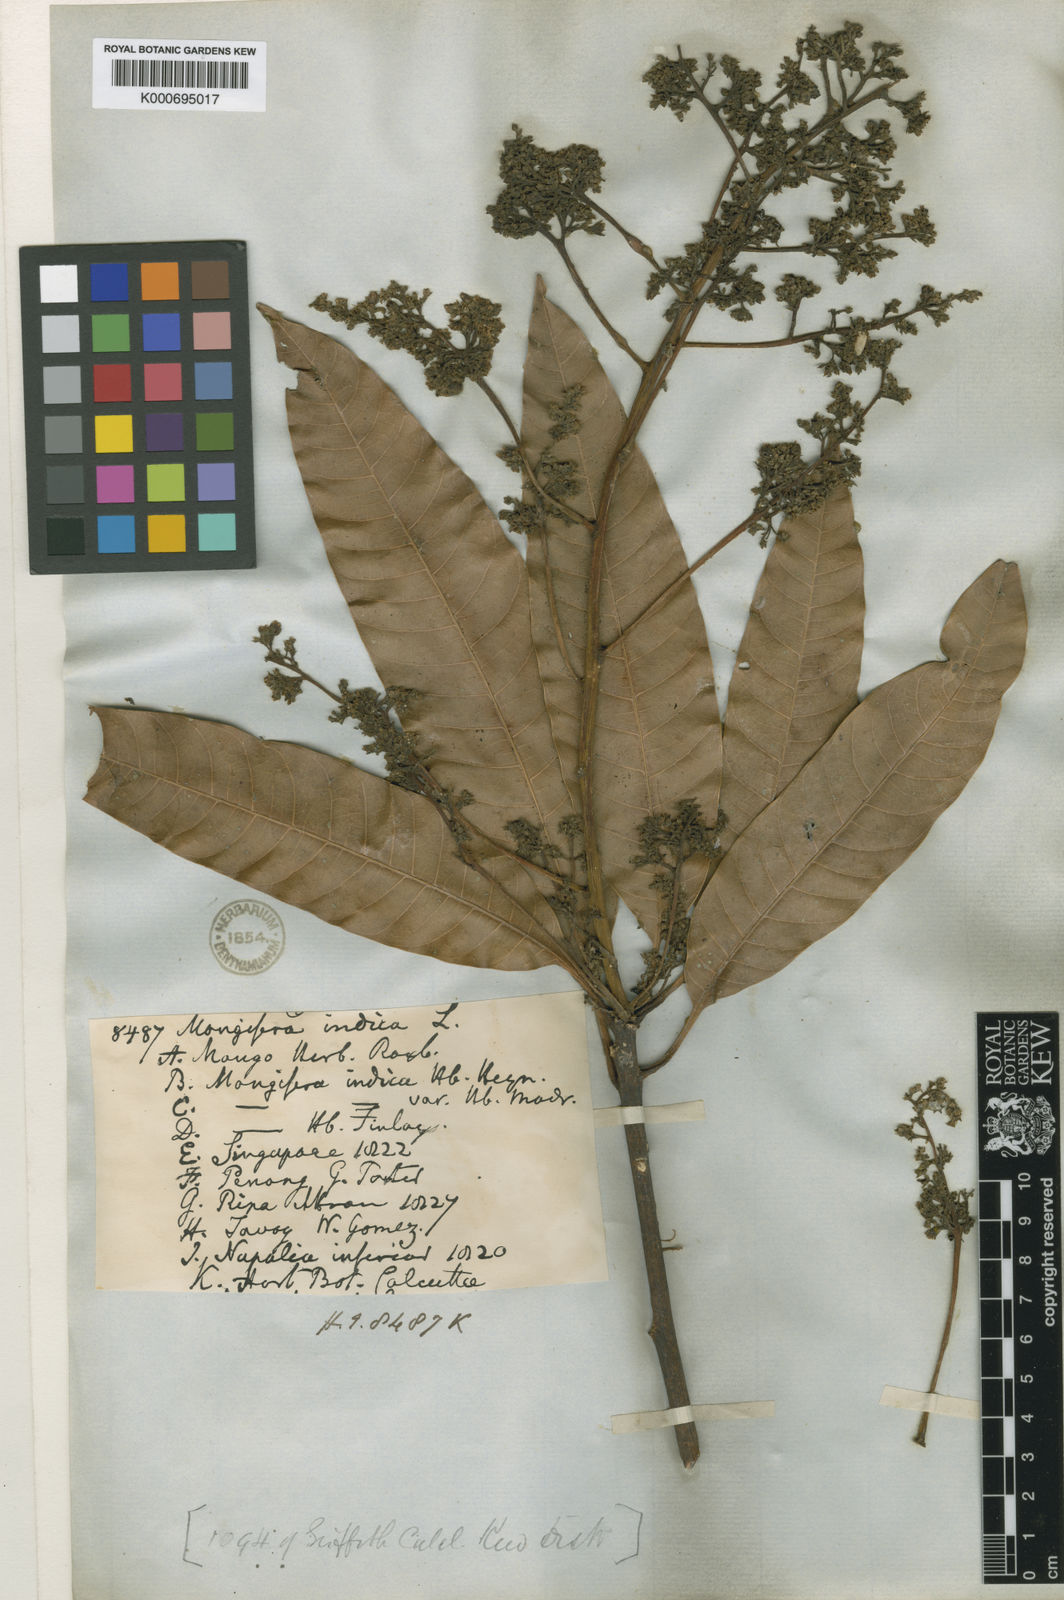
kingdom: Plantae
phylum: Tracheophyta
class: Magnoliopsida
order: Sapindales
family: Anacardiaceae
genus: Mangifera
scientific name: Mangifera indica
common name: Mango
